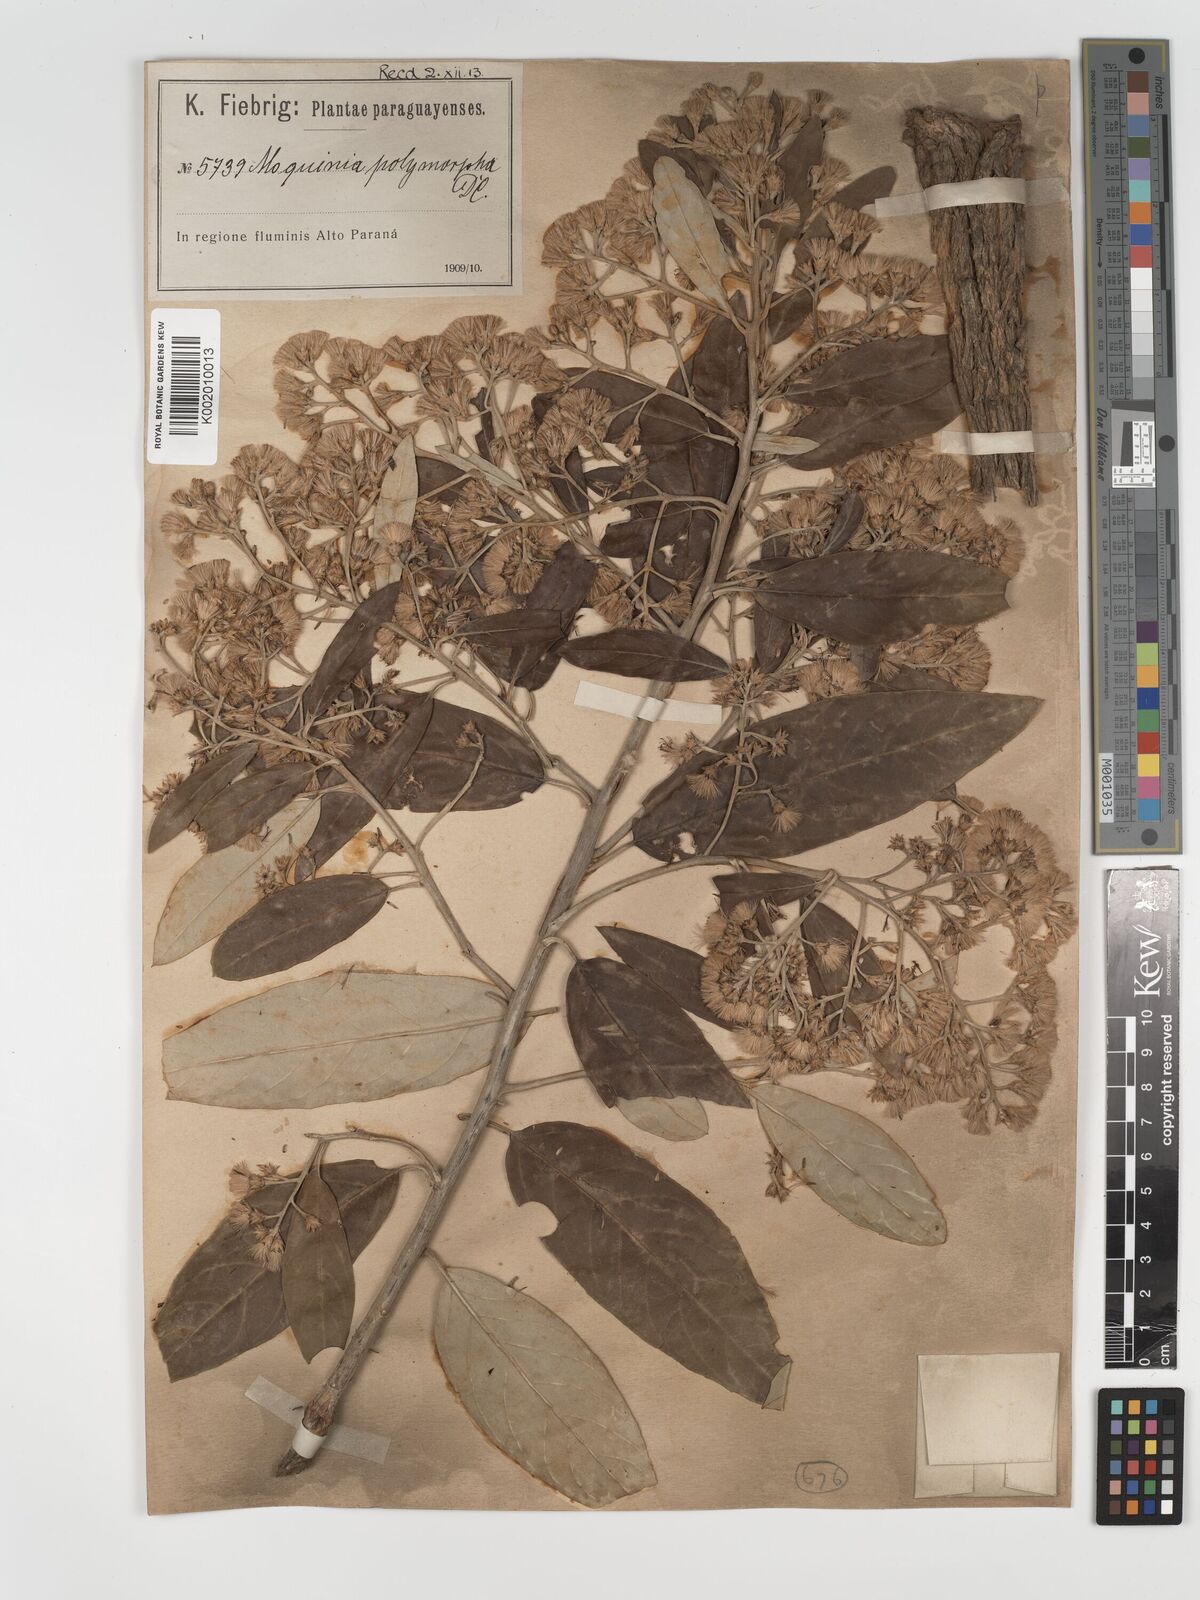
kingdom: Plantae
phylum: Tracheophyta
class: Magnoliopsida
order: Asterales
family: Asteraceae
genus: Moquiniastrum
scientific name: Moquiniastrum polymorphum
